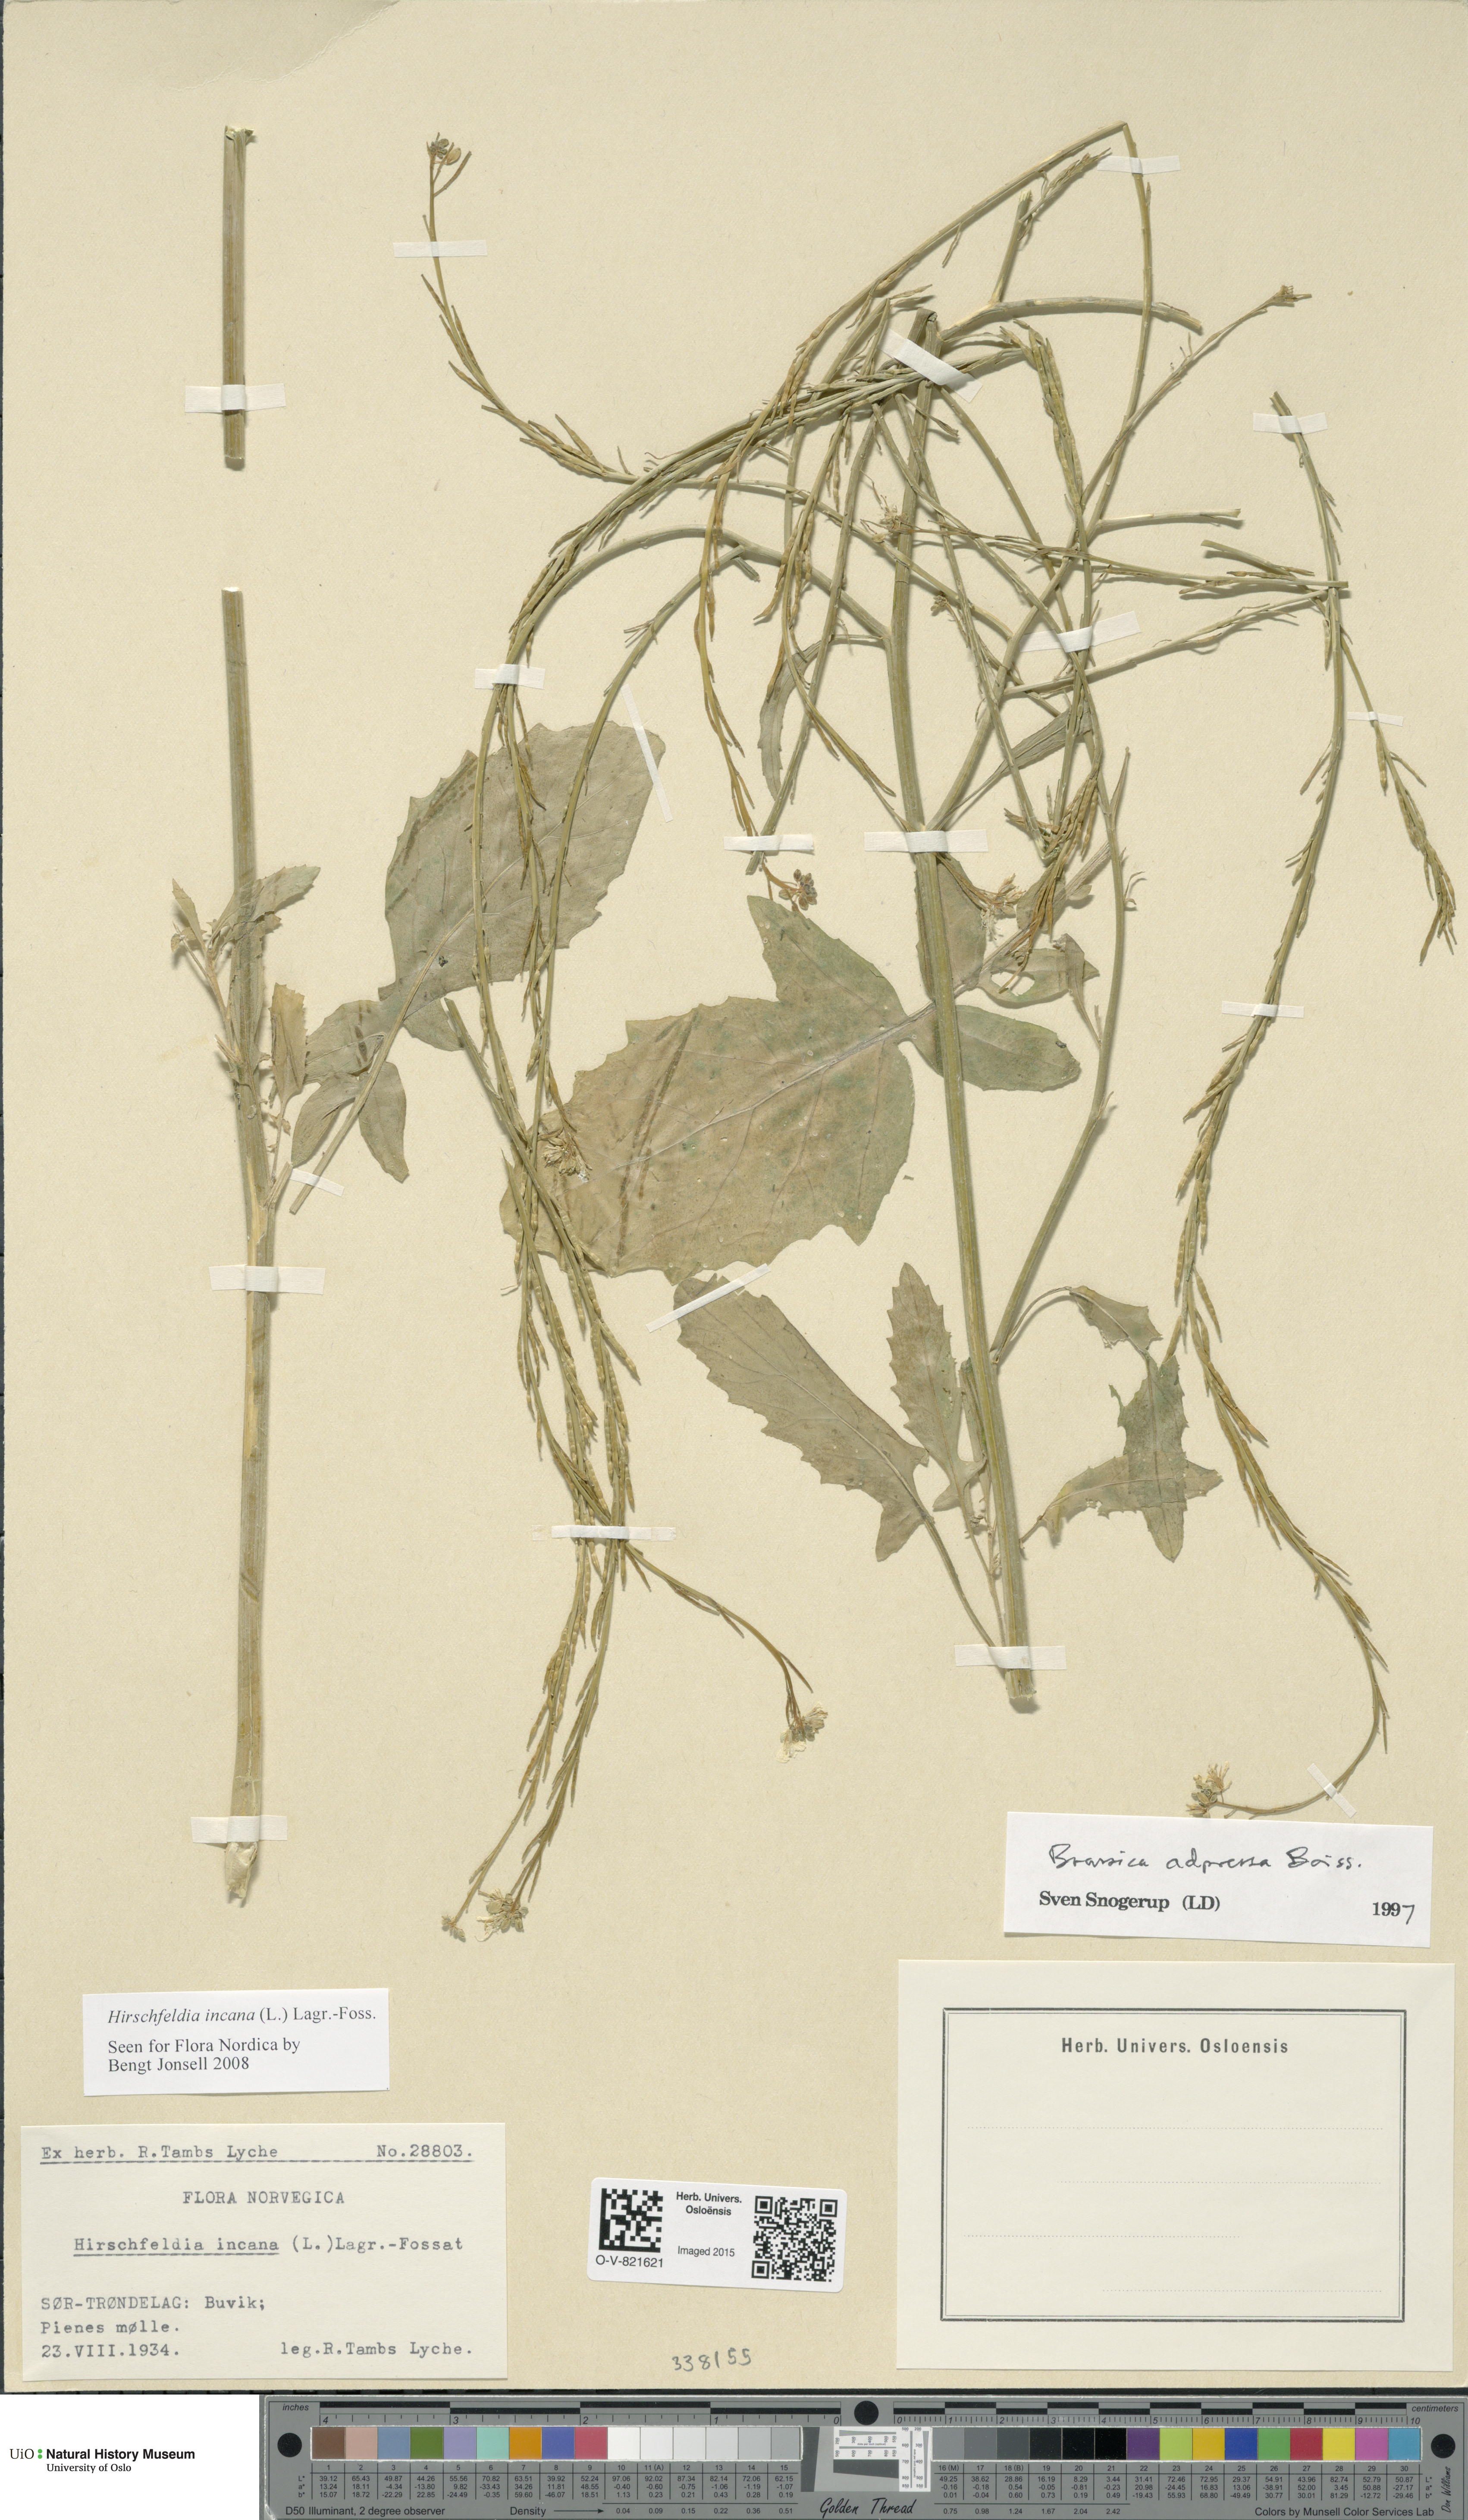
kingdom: Plantae
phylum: Tracheophyta
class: Magnoliopsida
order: Brassicales
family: Brassicaceae
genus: Hirschfeldia
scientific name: Hirschfeldia incana
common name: Hoary mustard
